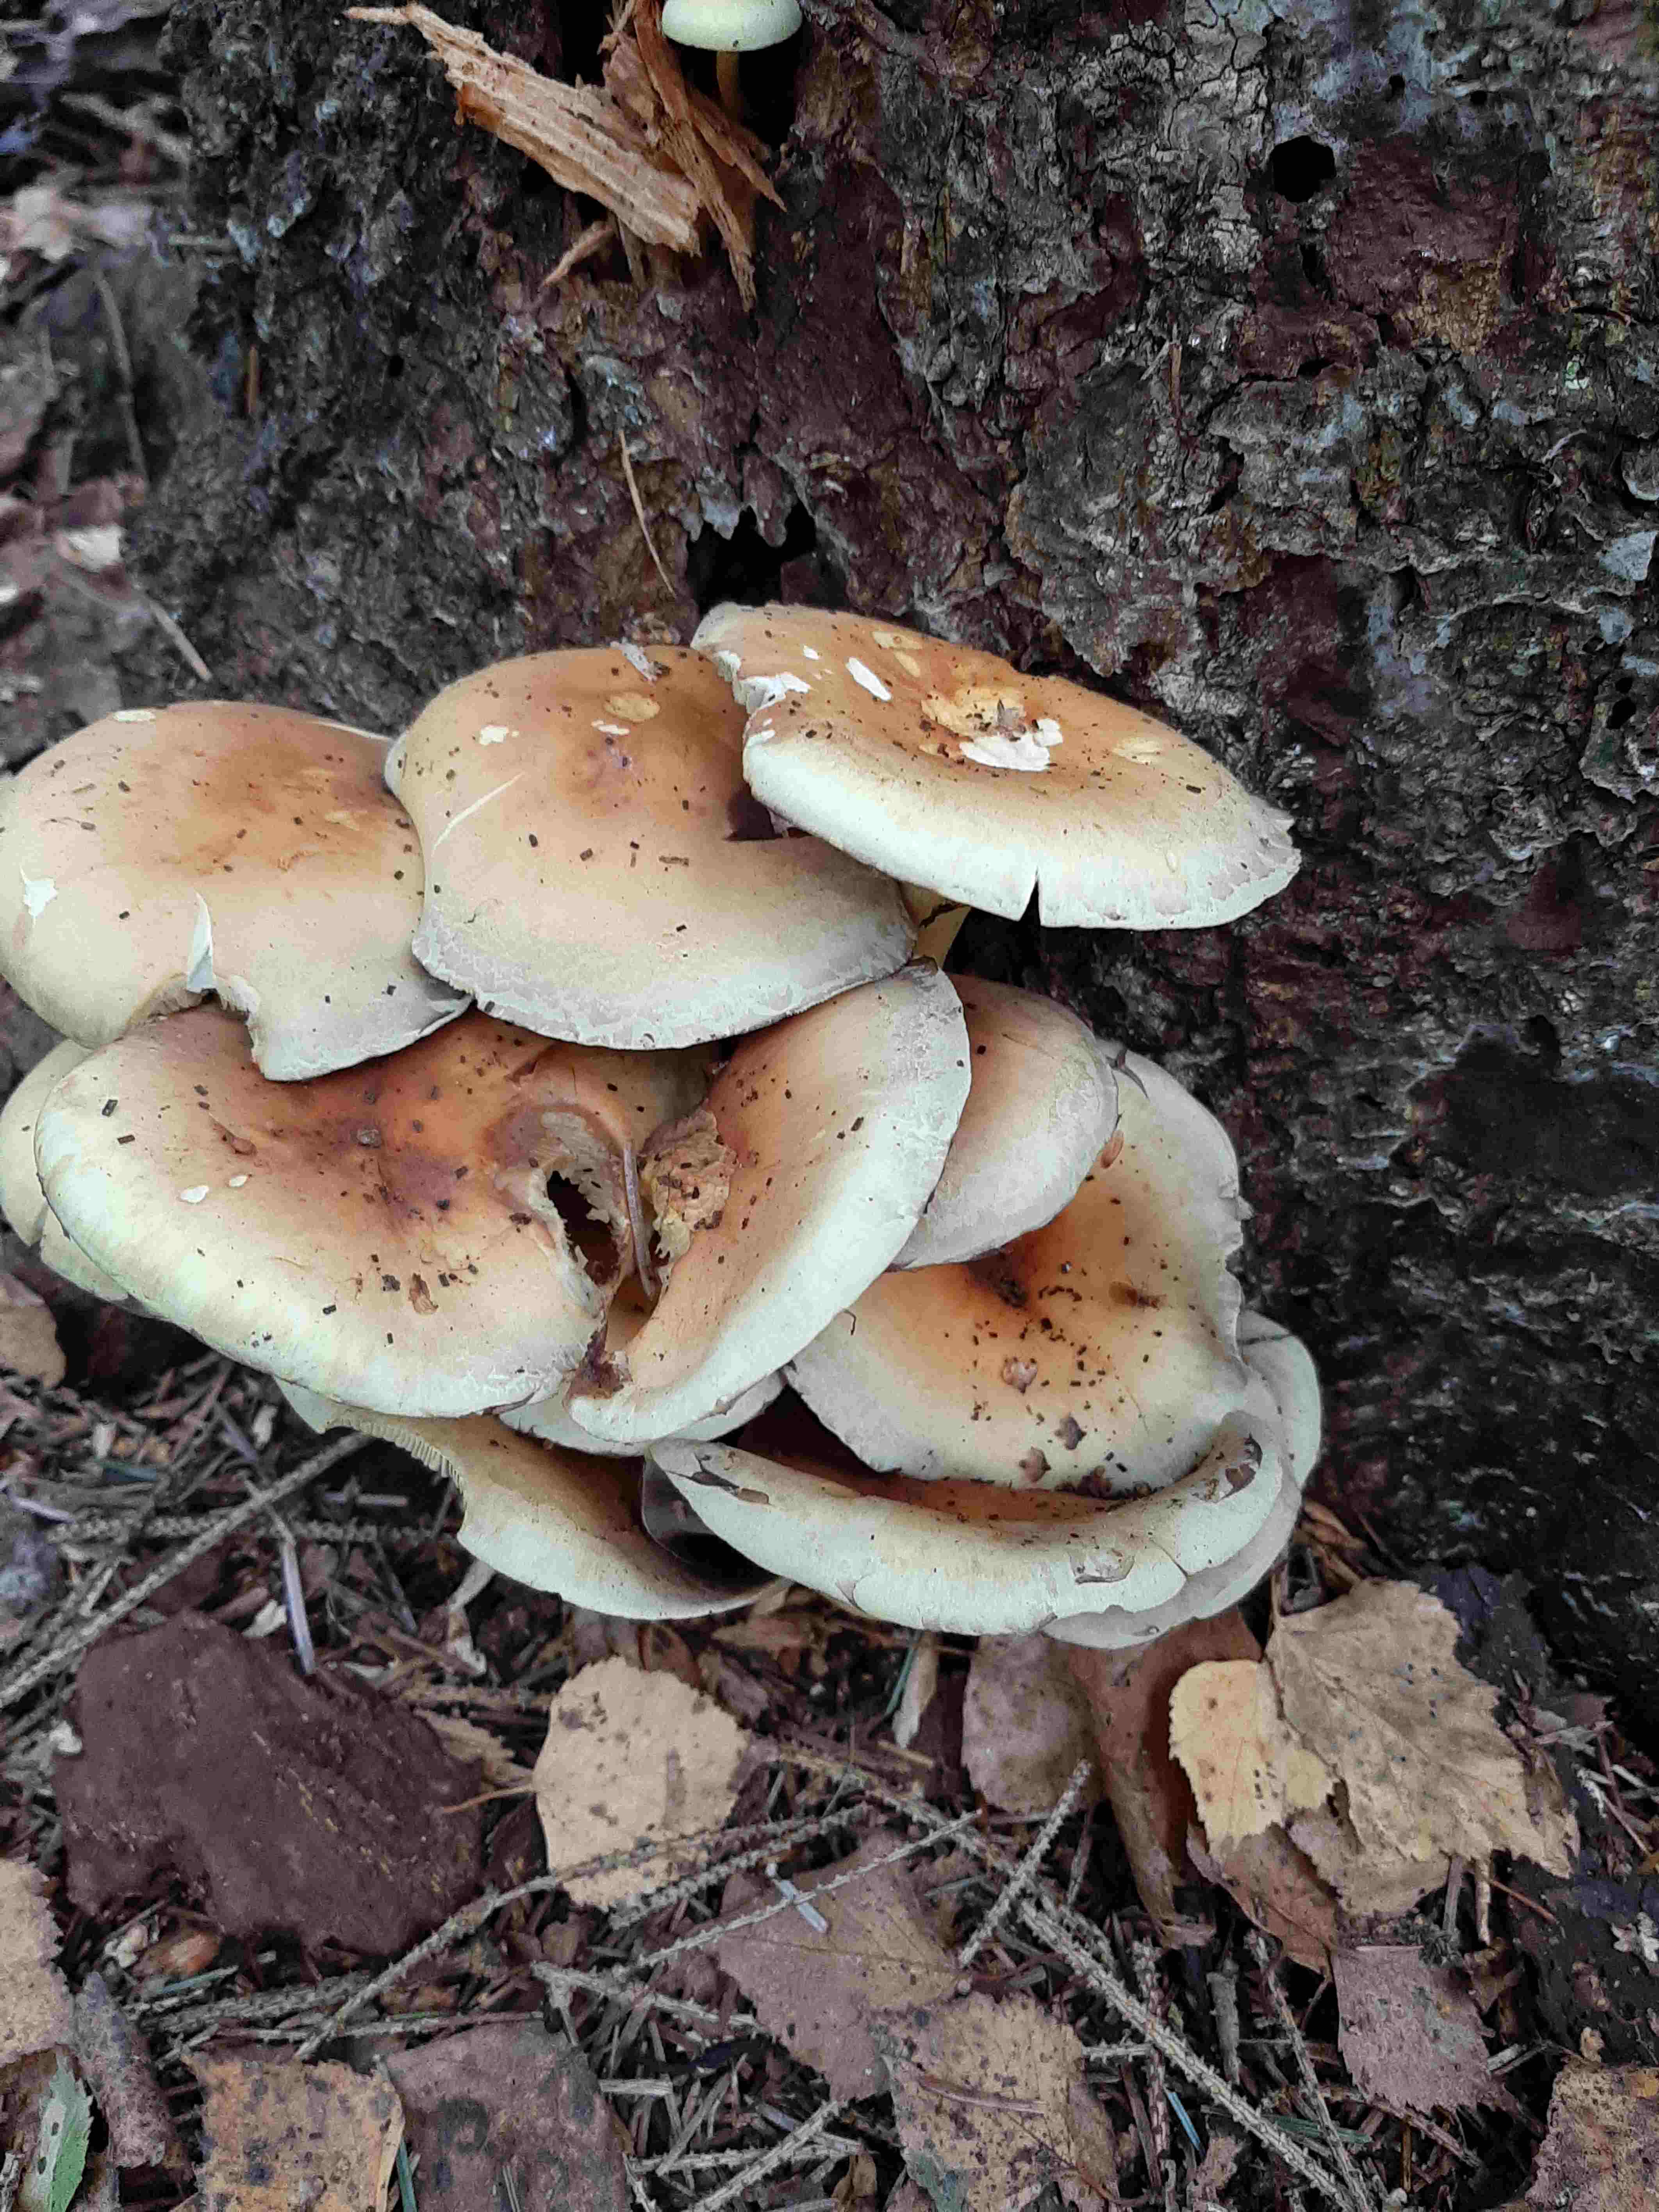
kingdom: Fungi
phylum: Basidiomycota
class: Agaricomycetes
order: Agaricales
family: Strophariaceae
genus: Hypholoma
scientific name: Hypholoma fasciculare
